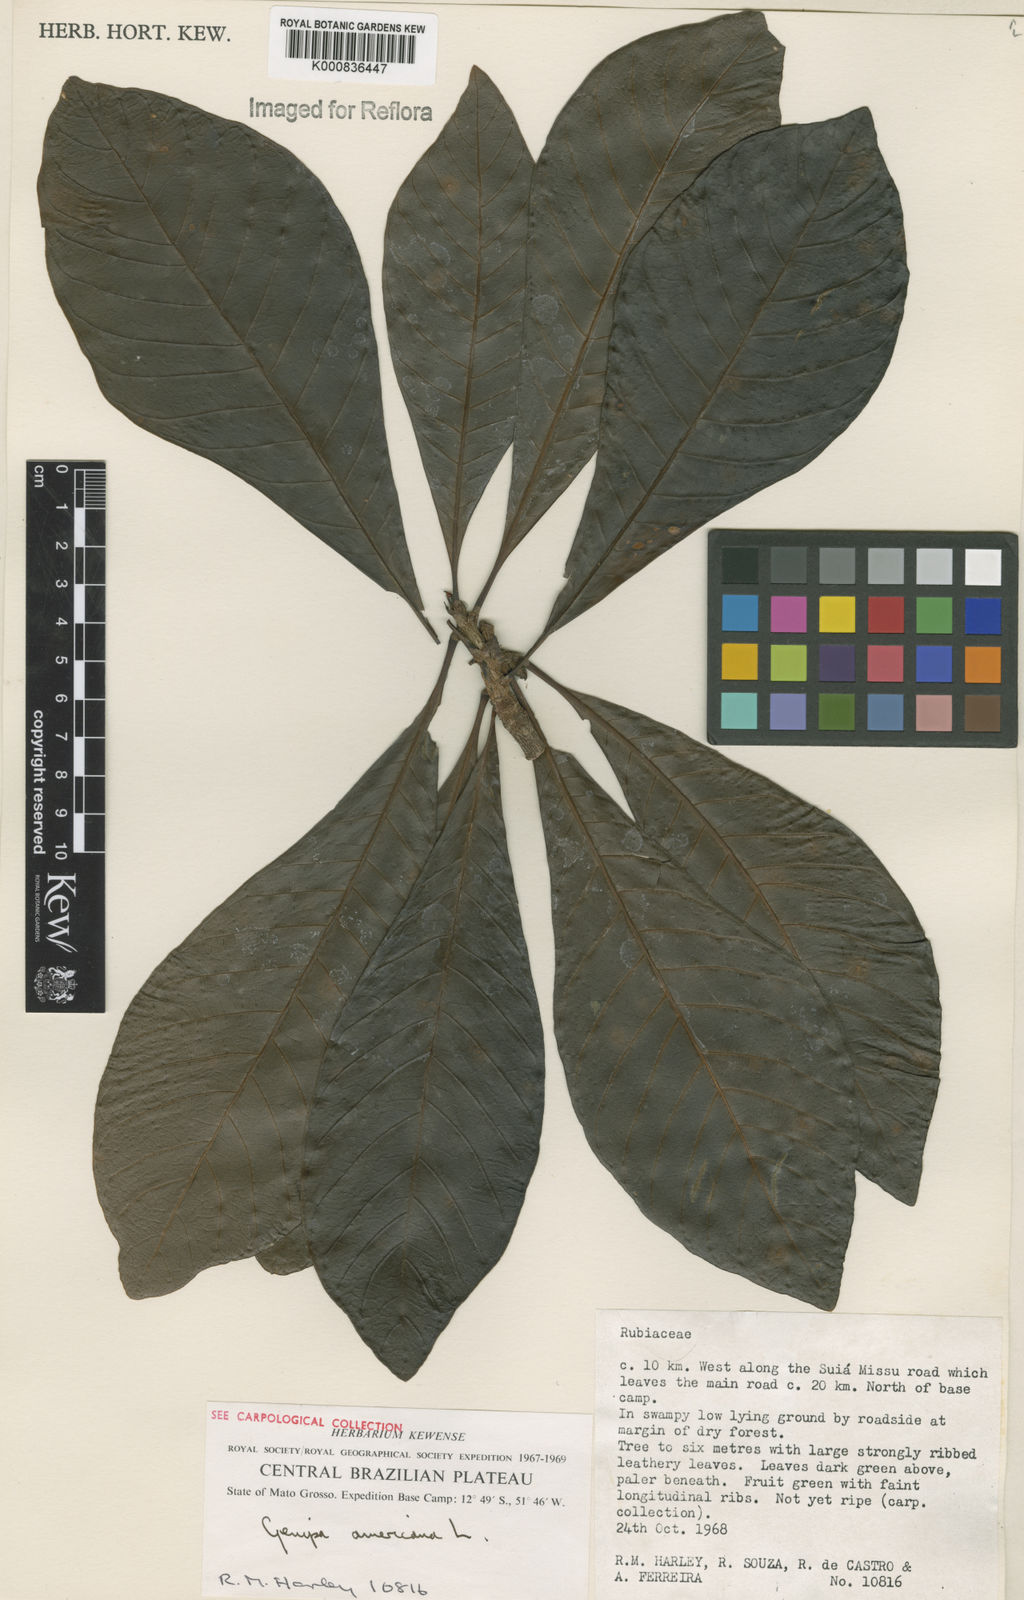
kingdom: Plantae
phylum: Tracheophyta
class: Magnoliopsida
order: Gentianales
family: Rubiaceae
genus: Genipa
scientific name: Genipa americana
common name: Genipap
